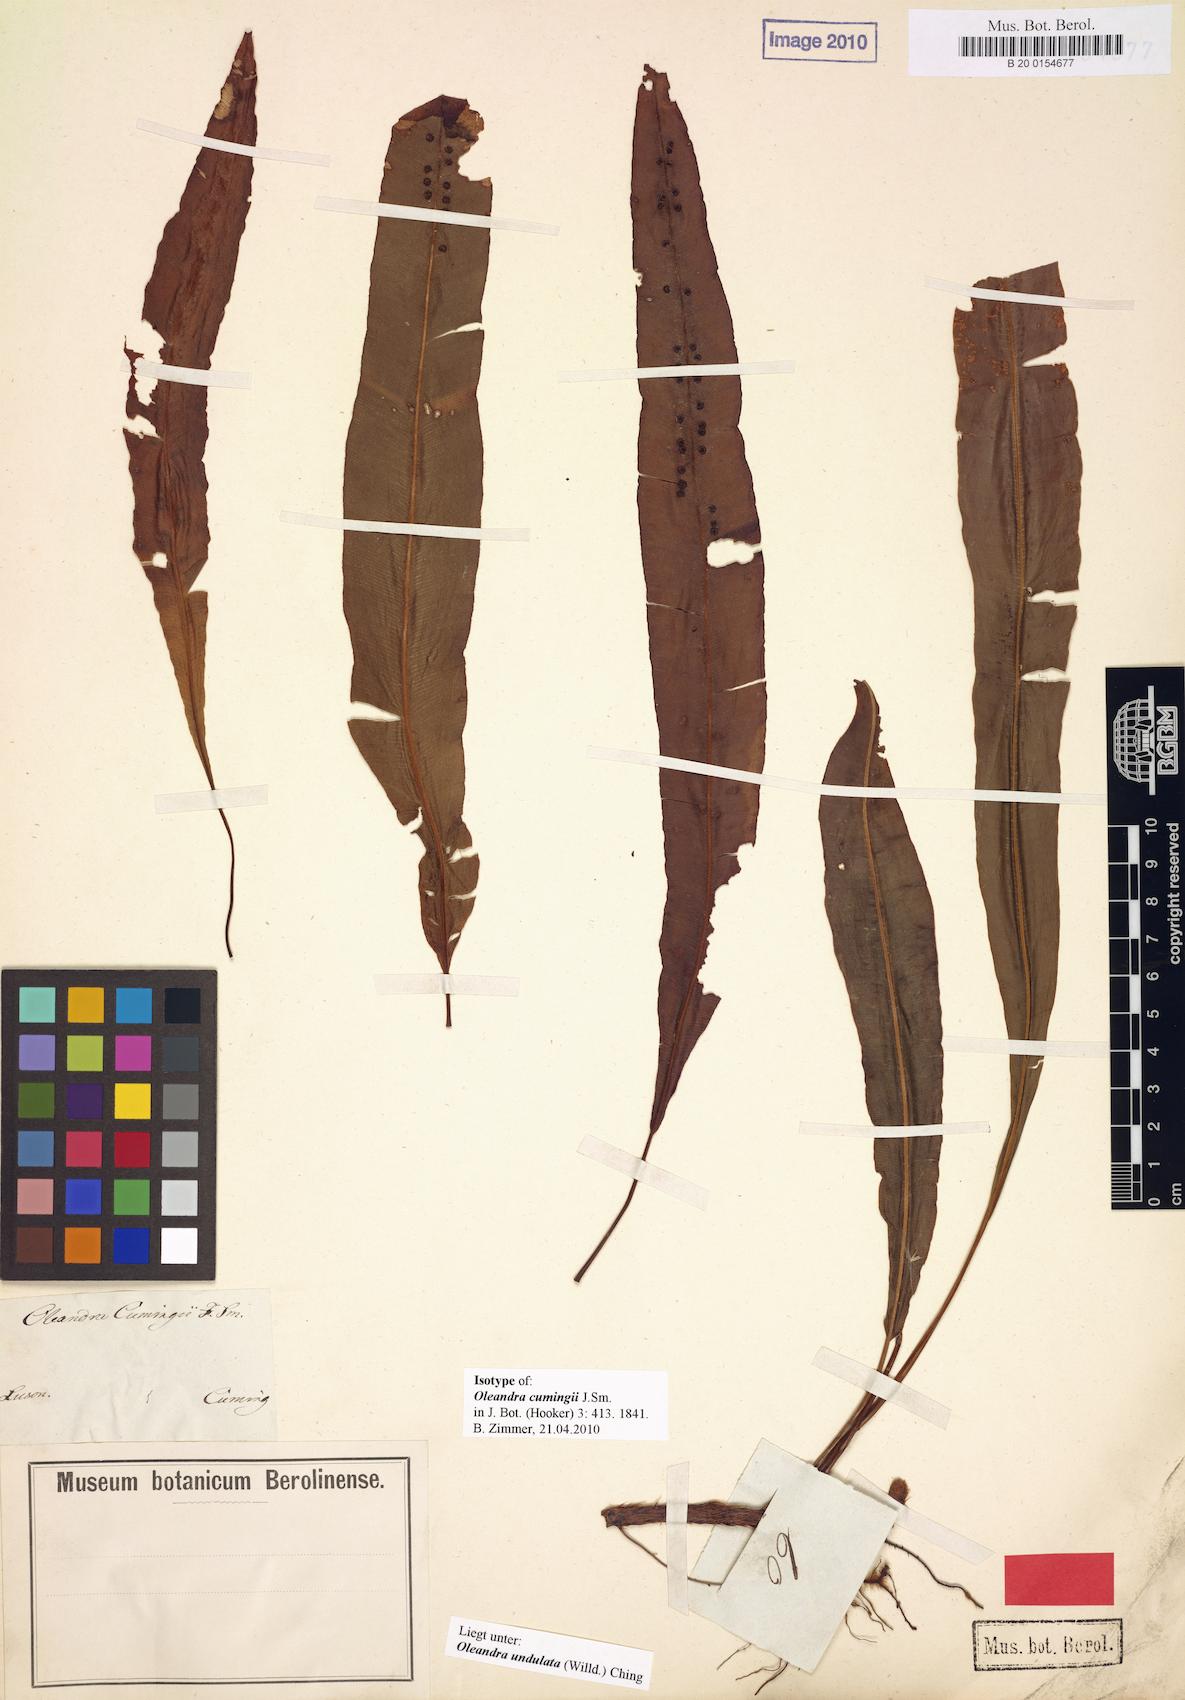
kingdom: Plantae
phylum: Tracheophyta
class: Polypodiopsida
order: Polypodiales
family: Oleandraceae
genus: Oleandra
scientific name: Oleandra undulata
